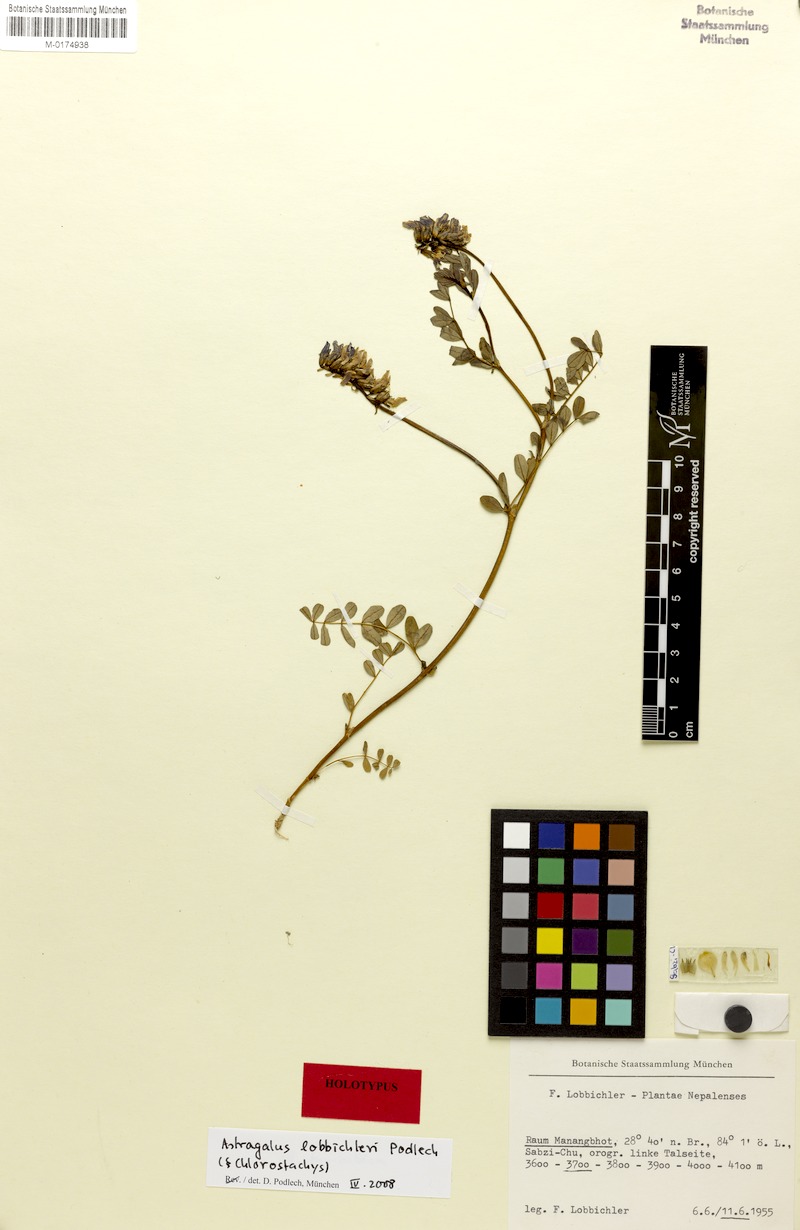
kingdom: Plantae
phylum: Tracheophyta
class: Magnoliopsida
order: Fabales
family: Fabaceae
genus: Astragalus
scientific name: Astragalus lobbichleri
